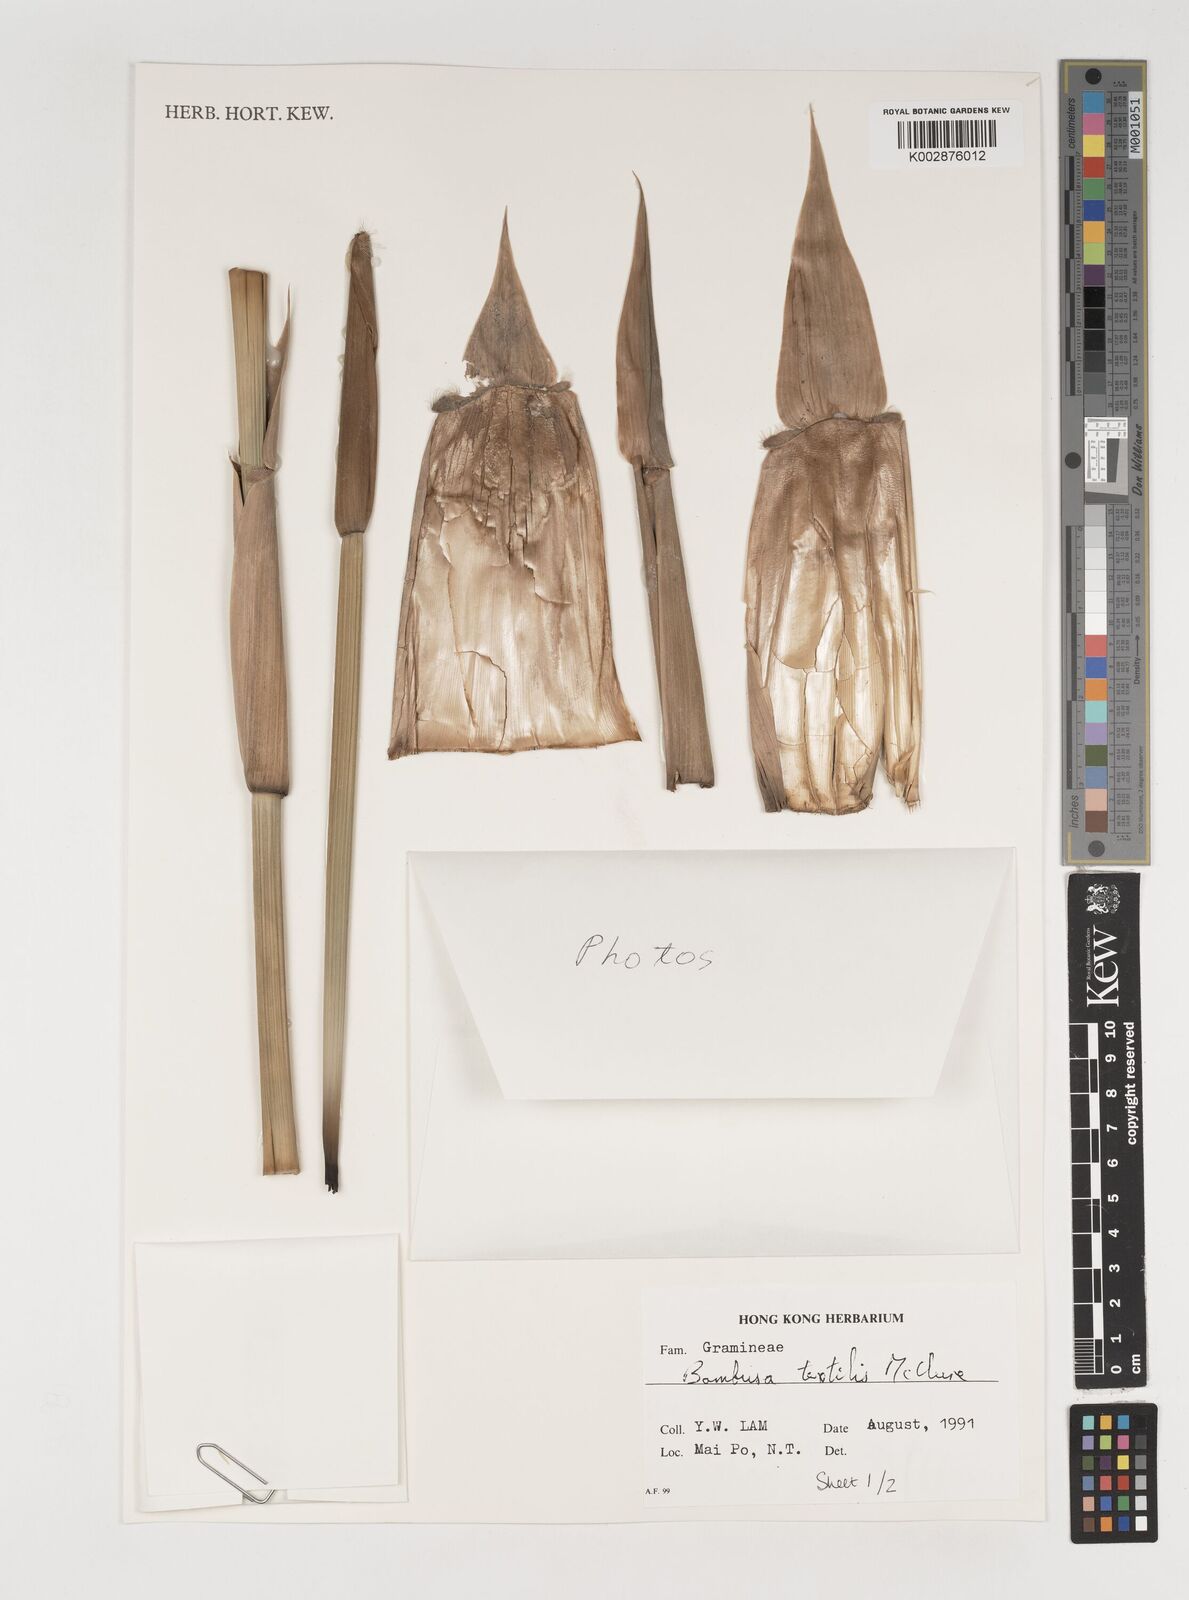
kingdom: Plantae
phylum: Tracheophyta
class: Liliopsida
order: Poales
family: Poaceae
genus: Bambusa
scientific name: Bambusa
